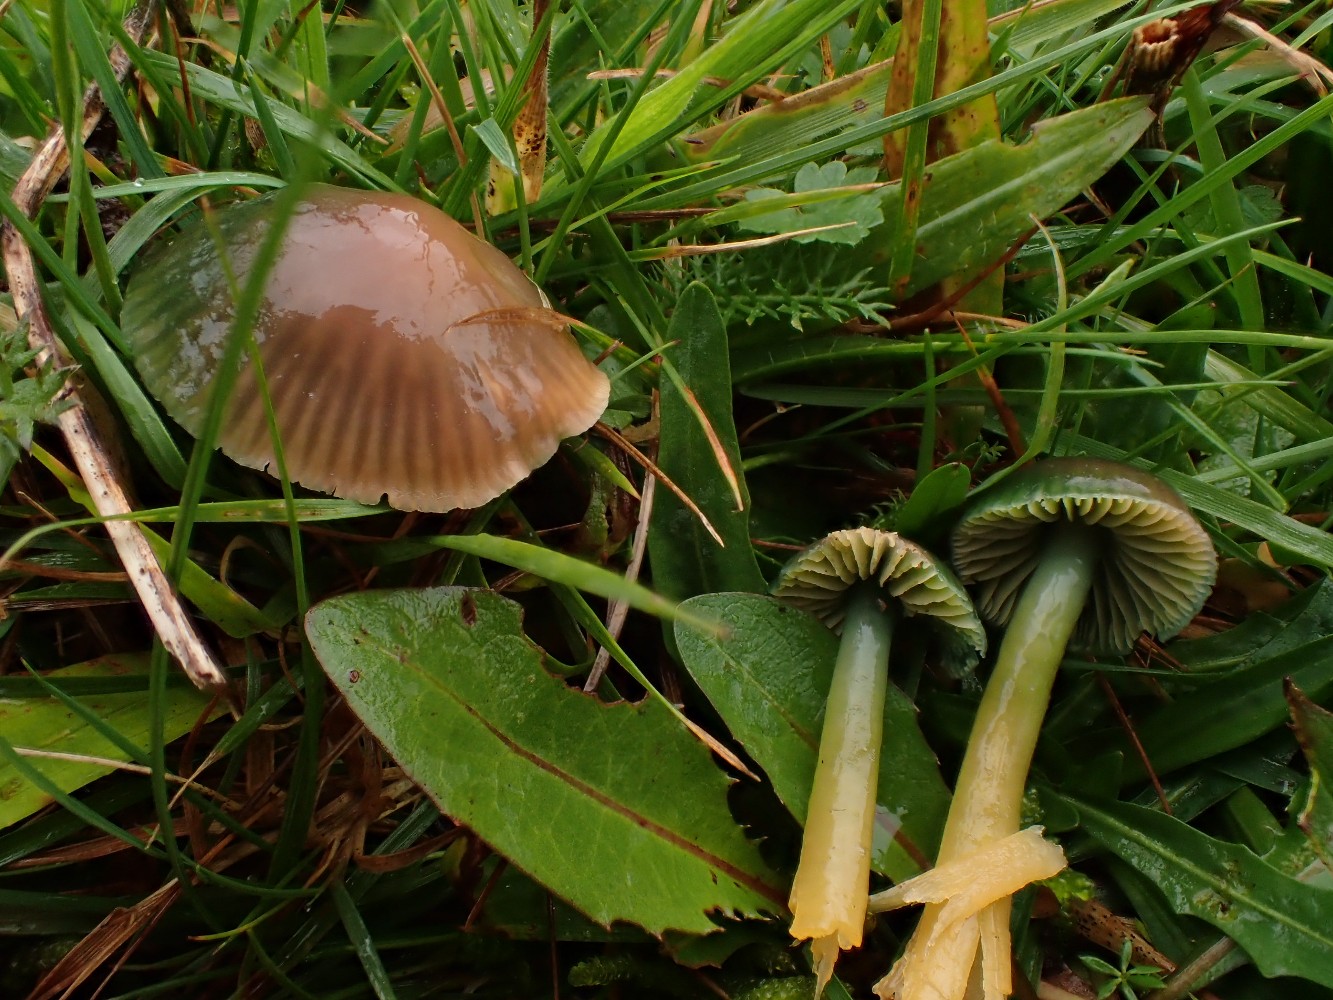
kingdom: Fungi
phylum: Basidiomycota
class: Agaricomycetes
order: Agaricales
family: Hygrophoraceae
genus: Gliophorus
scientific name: Gliophorus psittacinus
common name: papegøje-vokshat
